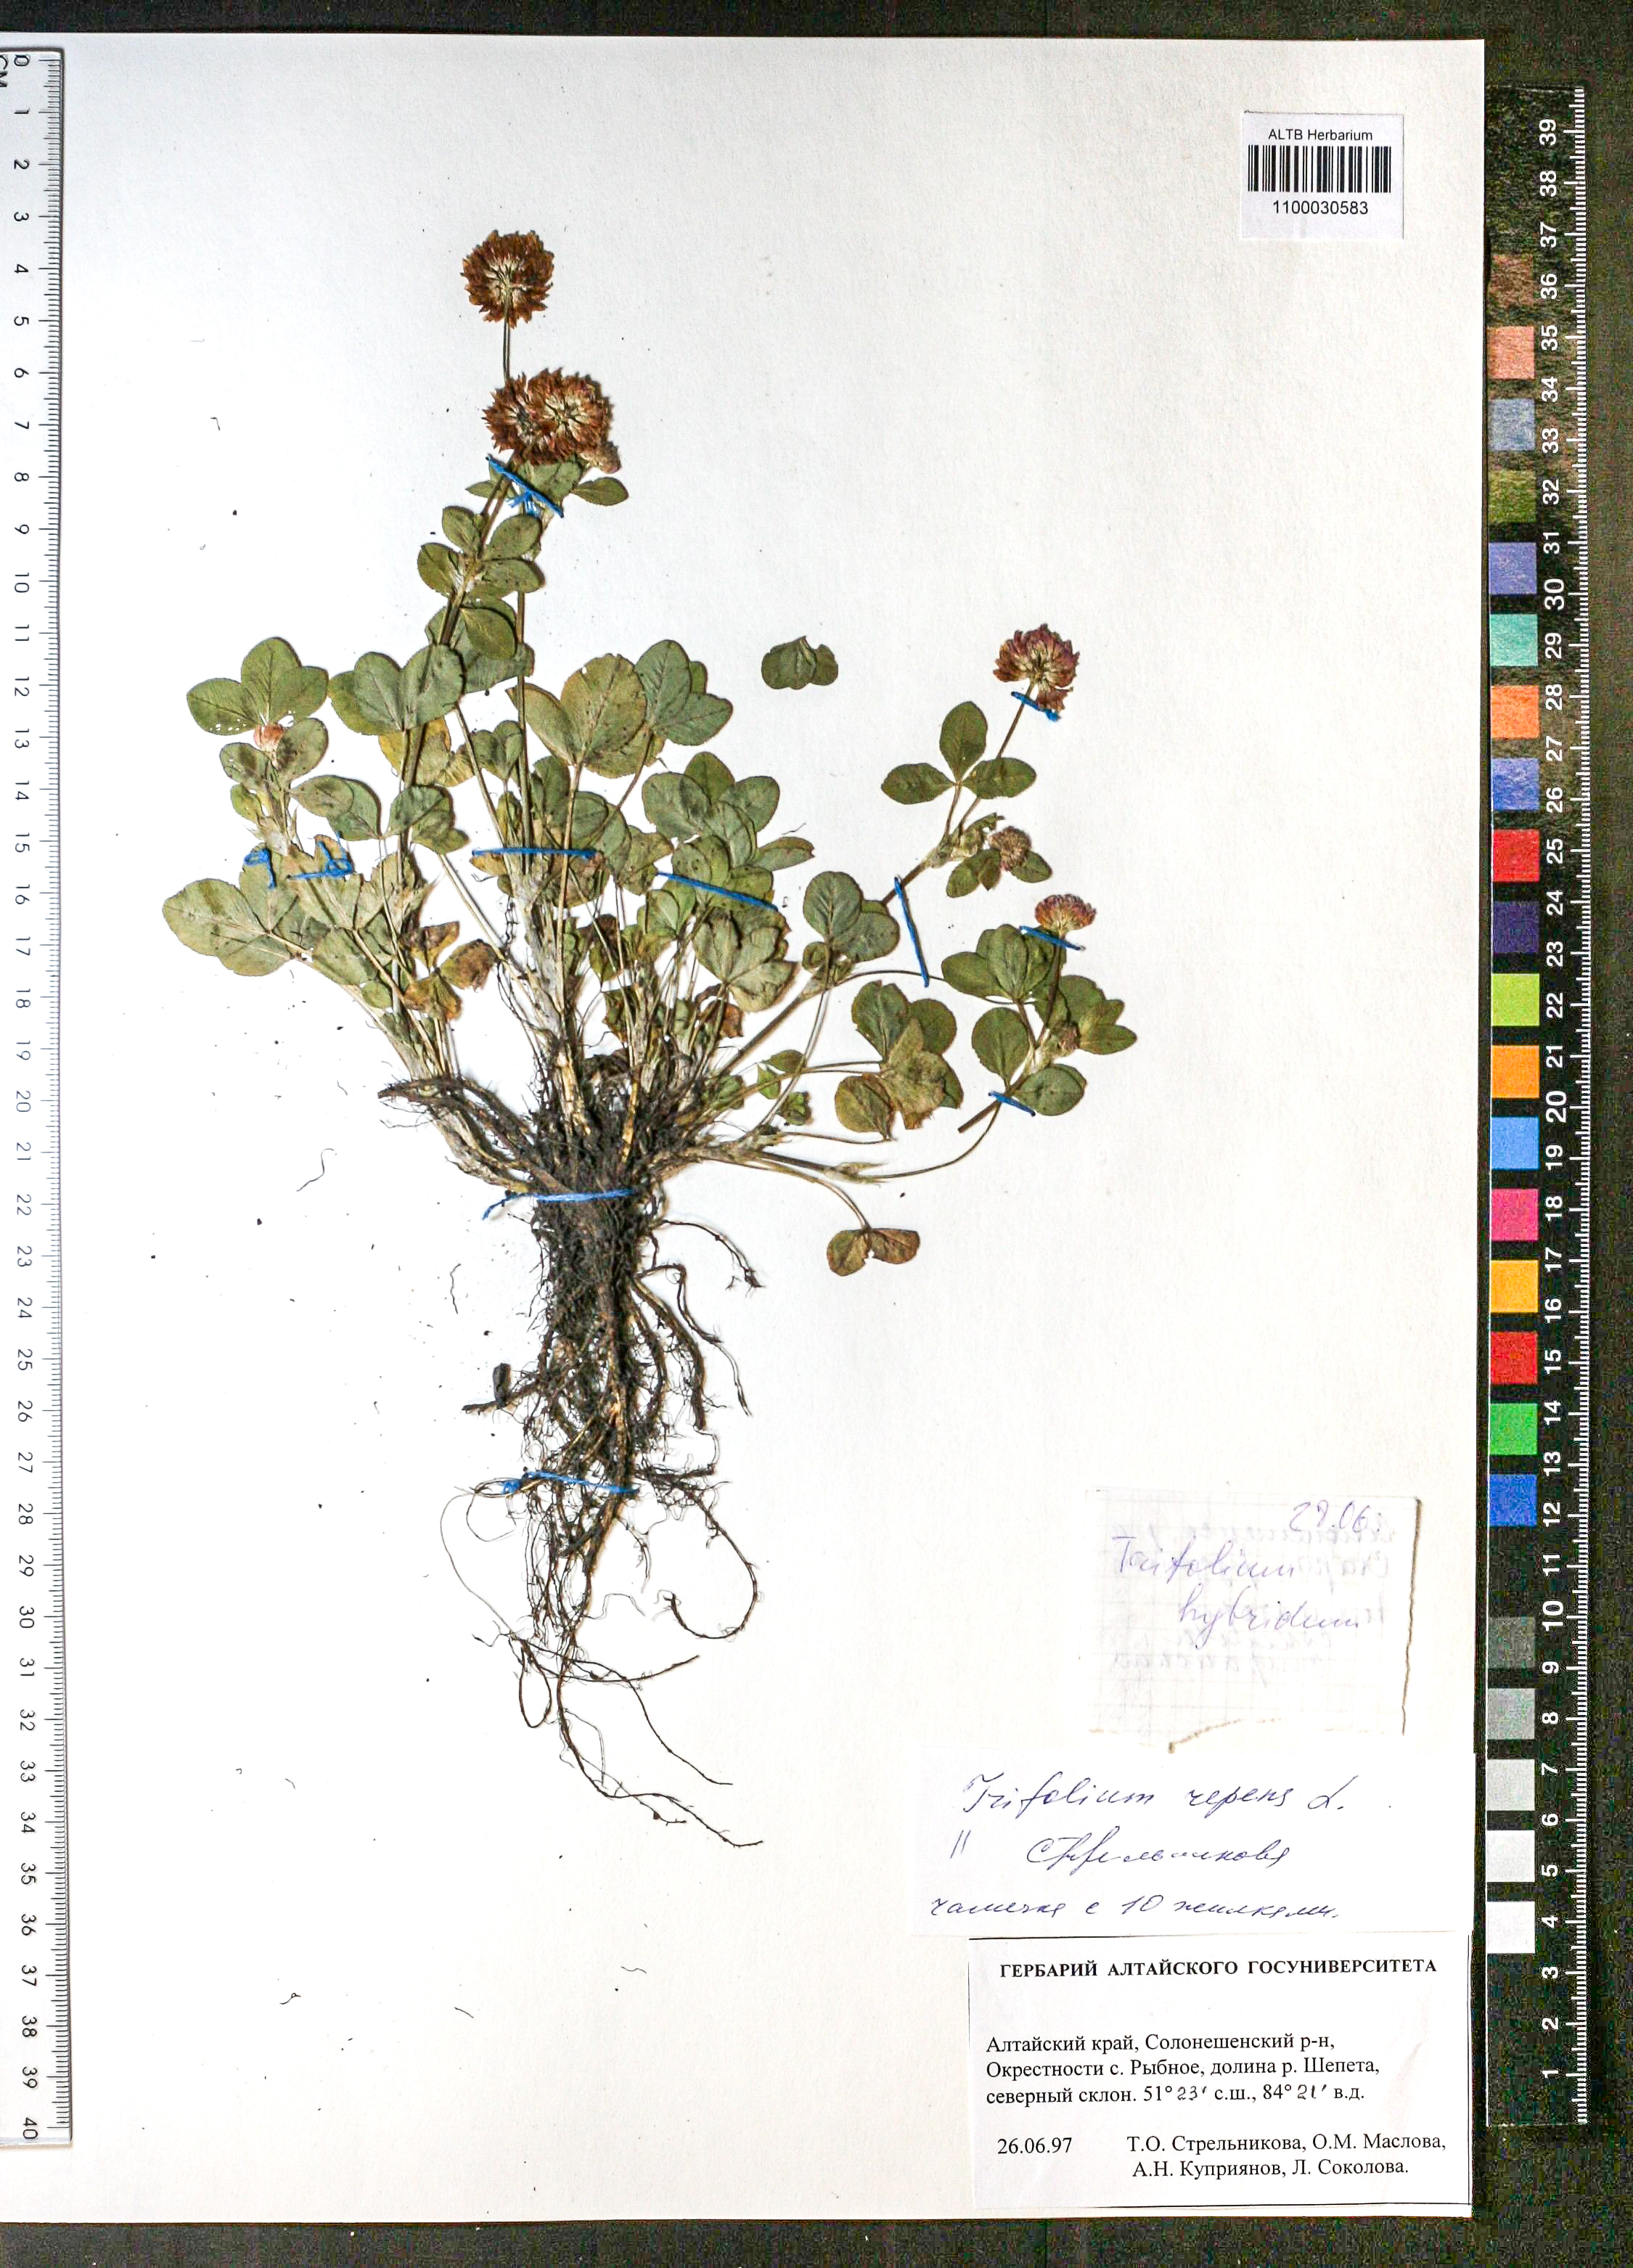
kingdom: Plantae
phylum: Tracheophyta
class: Magnoliopsida
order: Fabales
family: Fabaceae
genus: Trifolium
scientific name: Trifolium repens
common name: White clover
